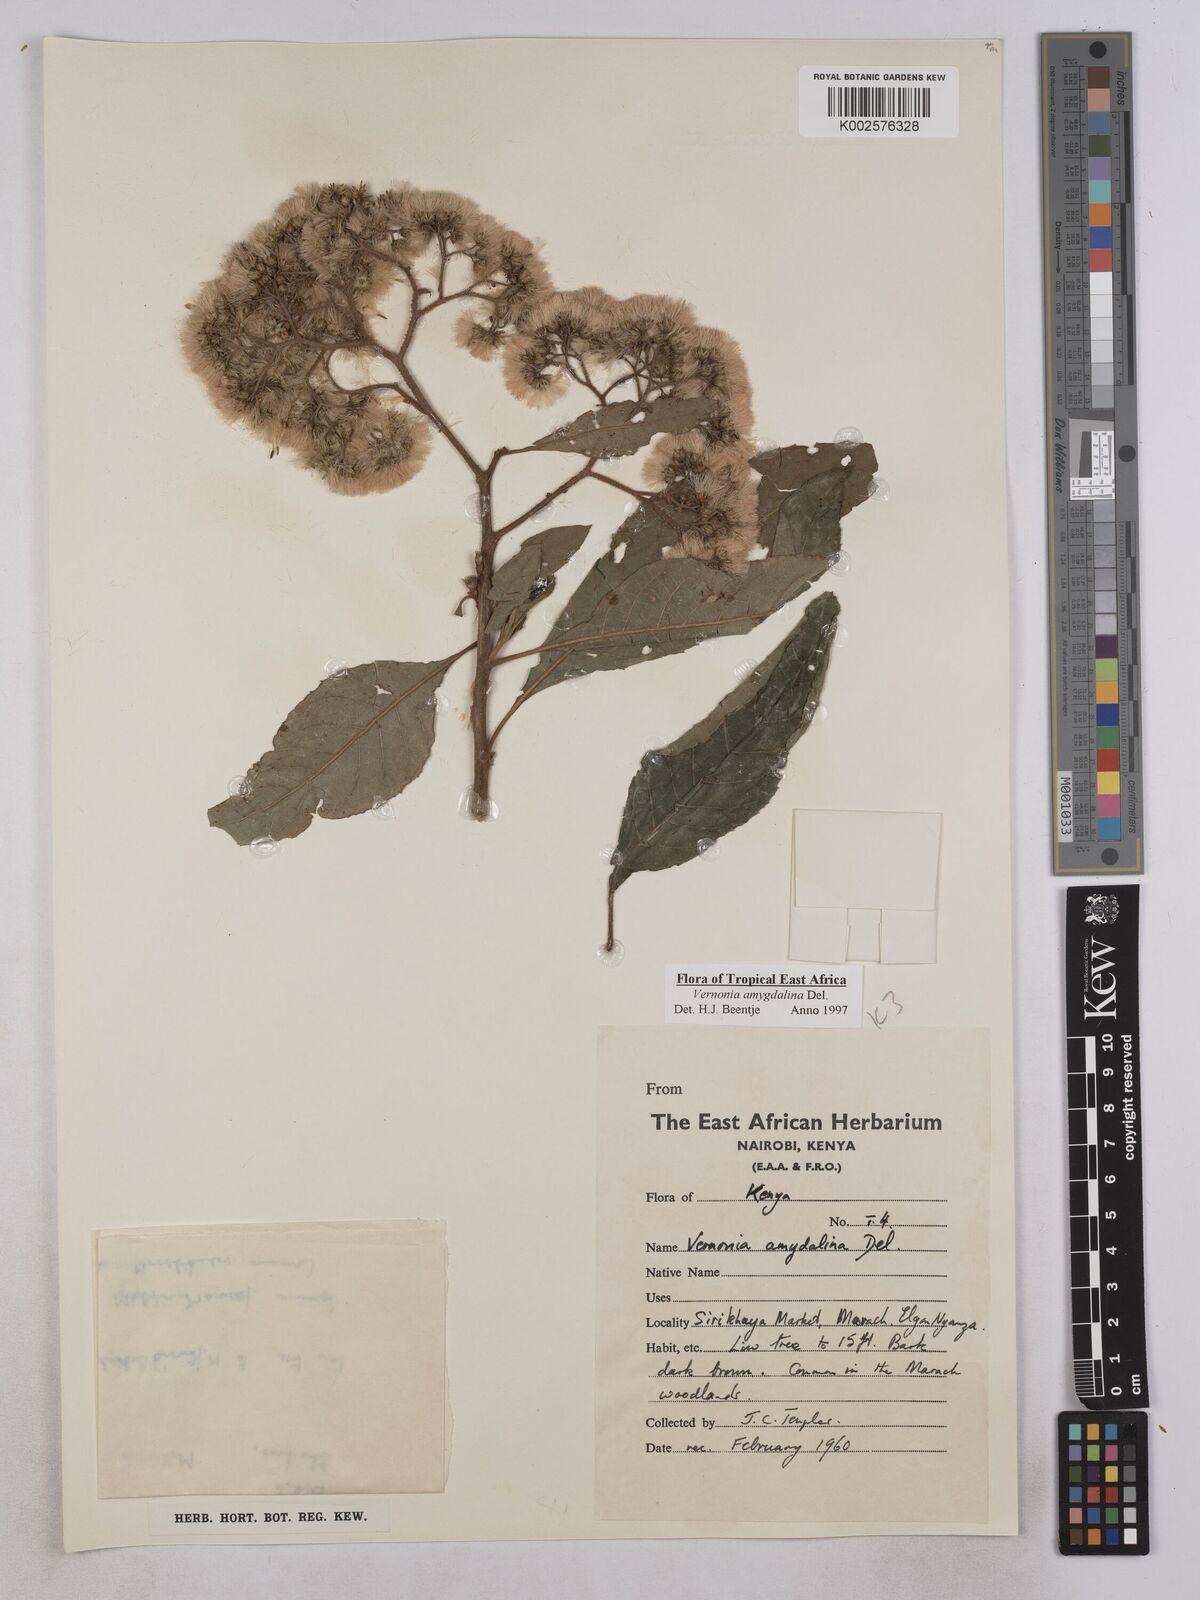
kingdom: Plantae
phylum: Tracheophyta
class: Magnoliopsida
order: Asterales
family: Asteraceae
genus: Gymnanthemum
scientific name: Gymnanthemum amygdalinum
